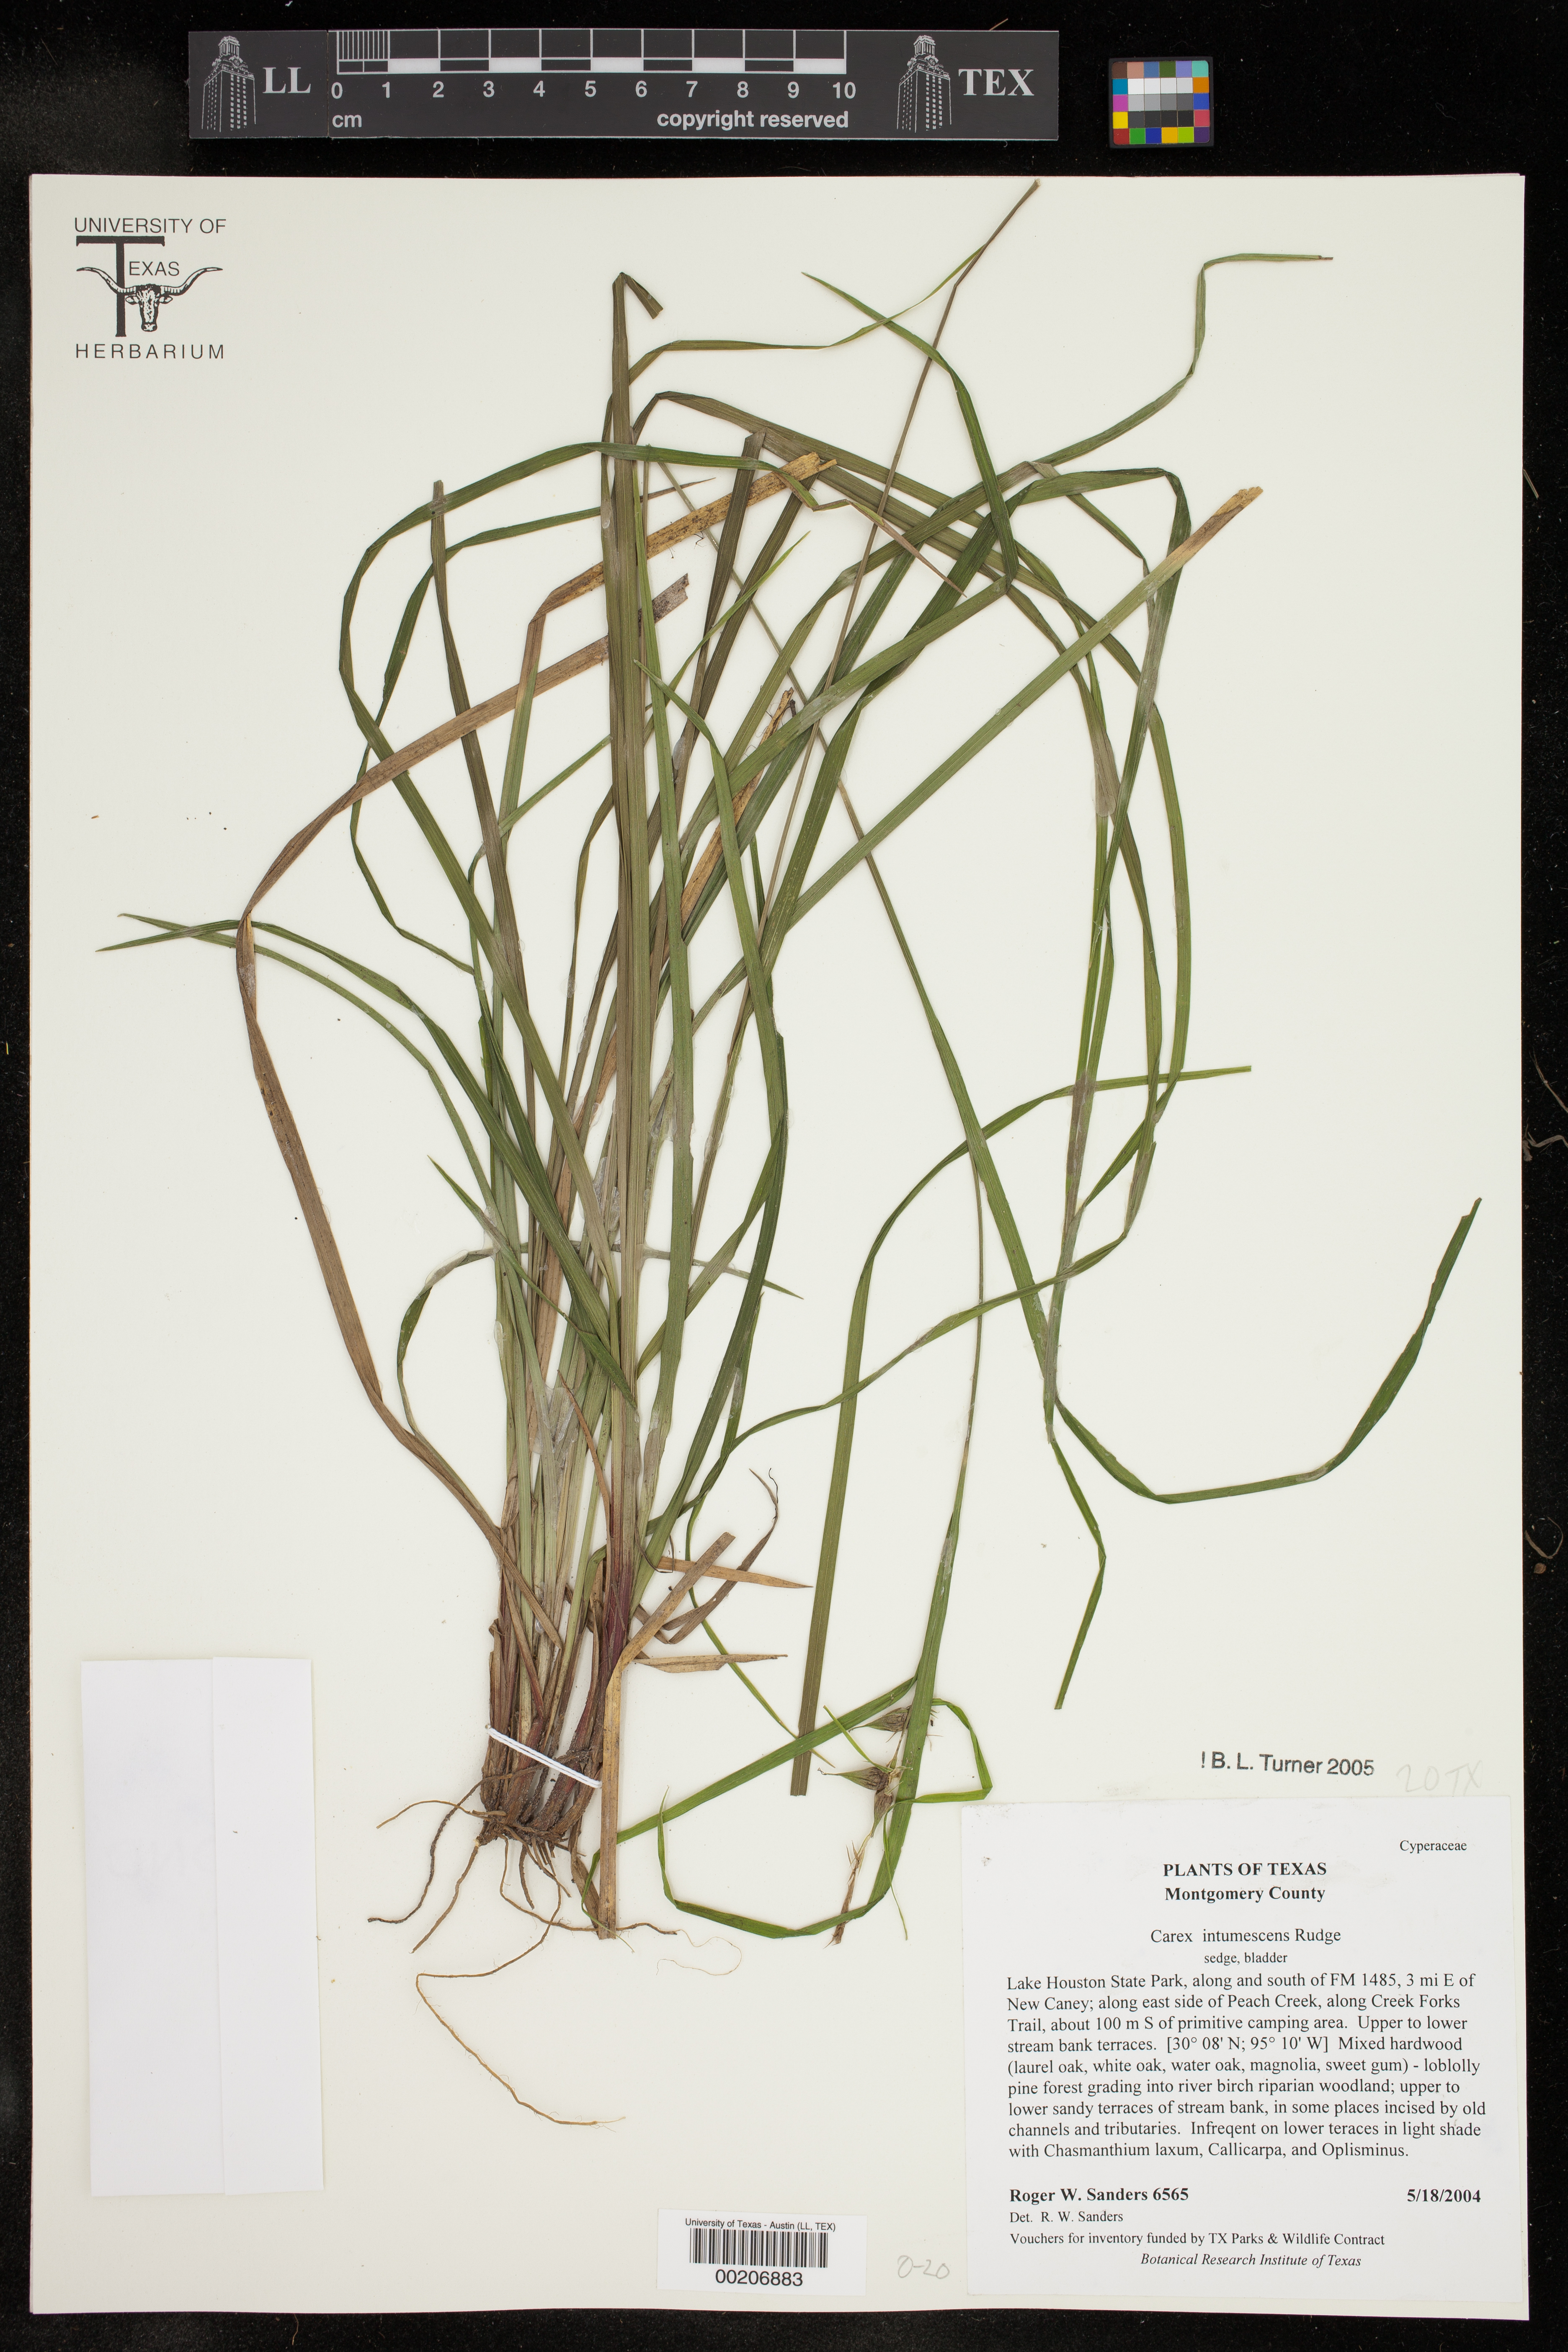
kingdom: Plantae
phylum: Tracheophyta
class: Liliopsida
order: Poales
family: Cyperaceae
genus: Carex
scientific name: Carex intumescens
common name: Greater bladder sedge
